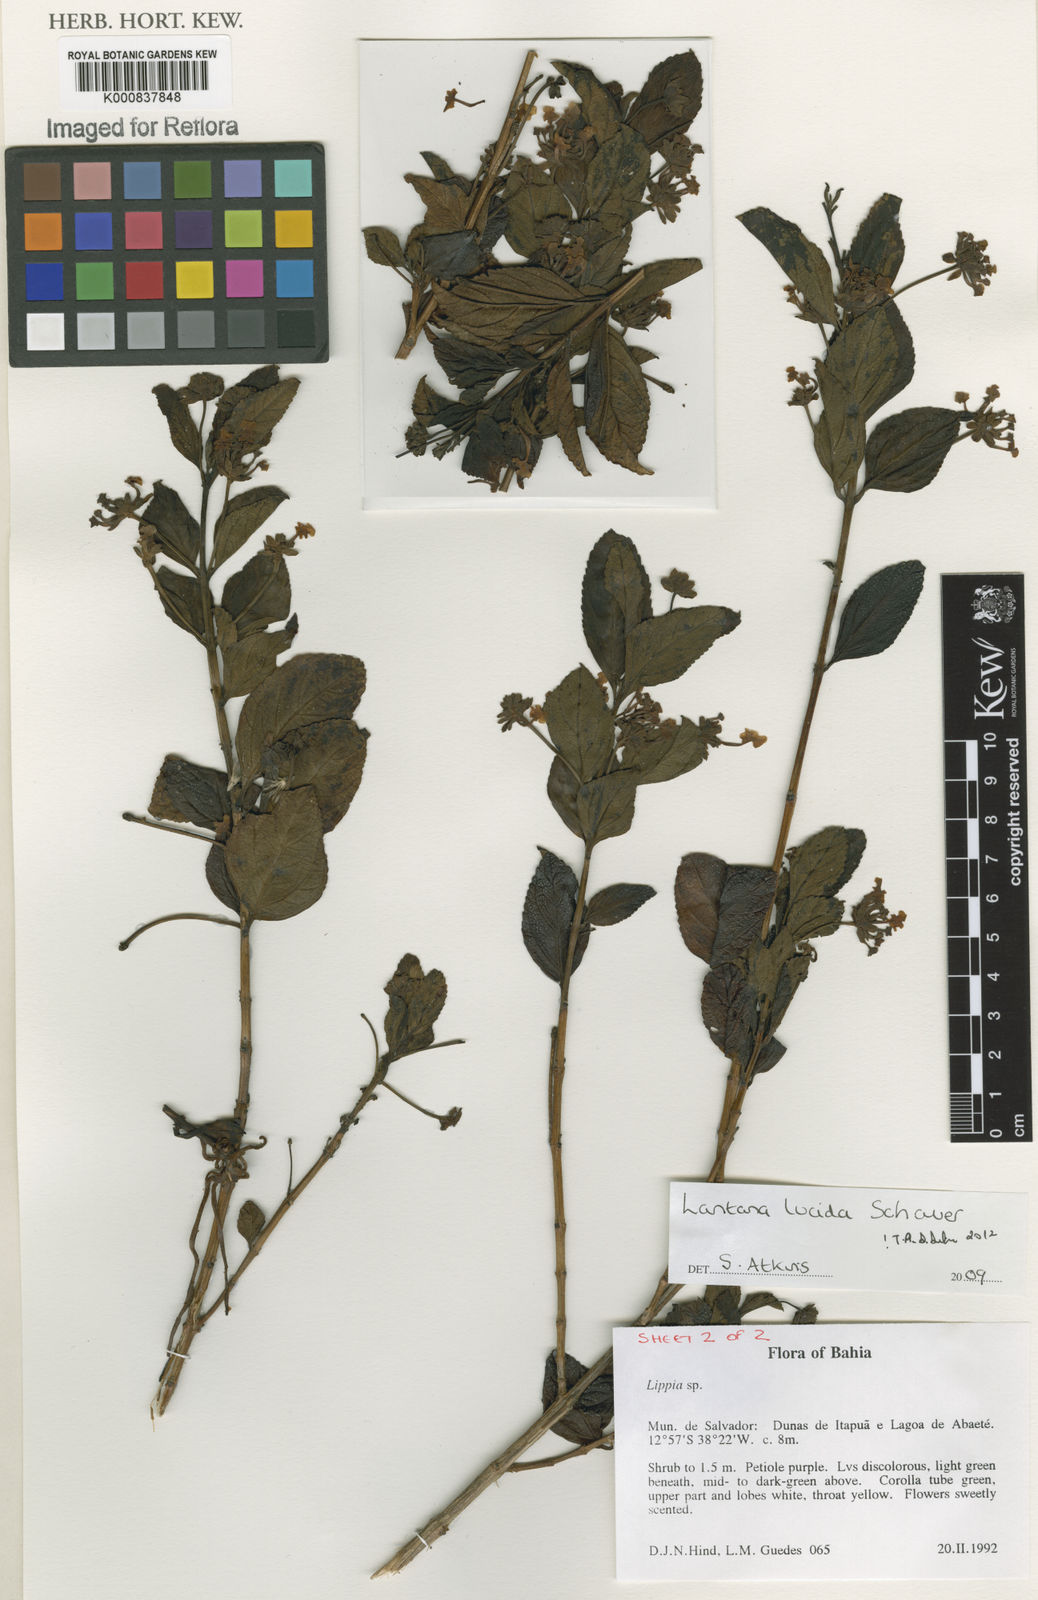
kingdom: Plantae
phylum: Tracheophyta
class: Magnoliopsida
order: Lamiales
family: Verbenaceae
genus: Lantana
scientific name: Lantana lucida
